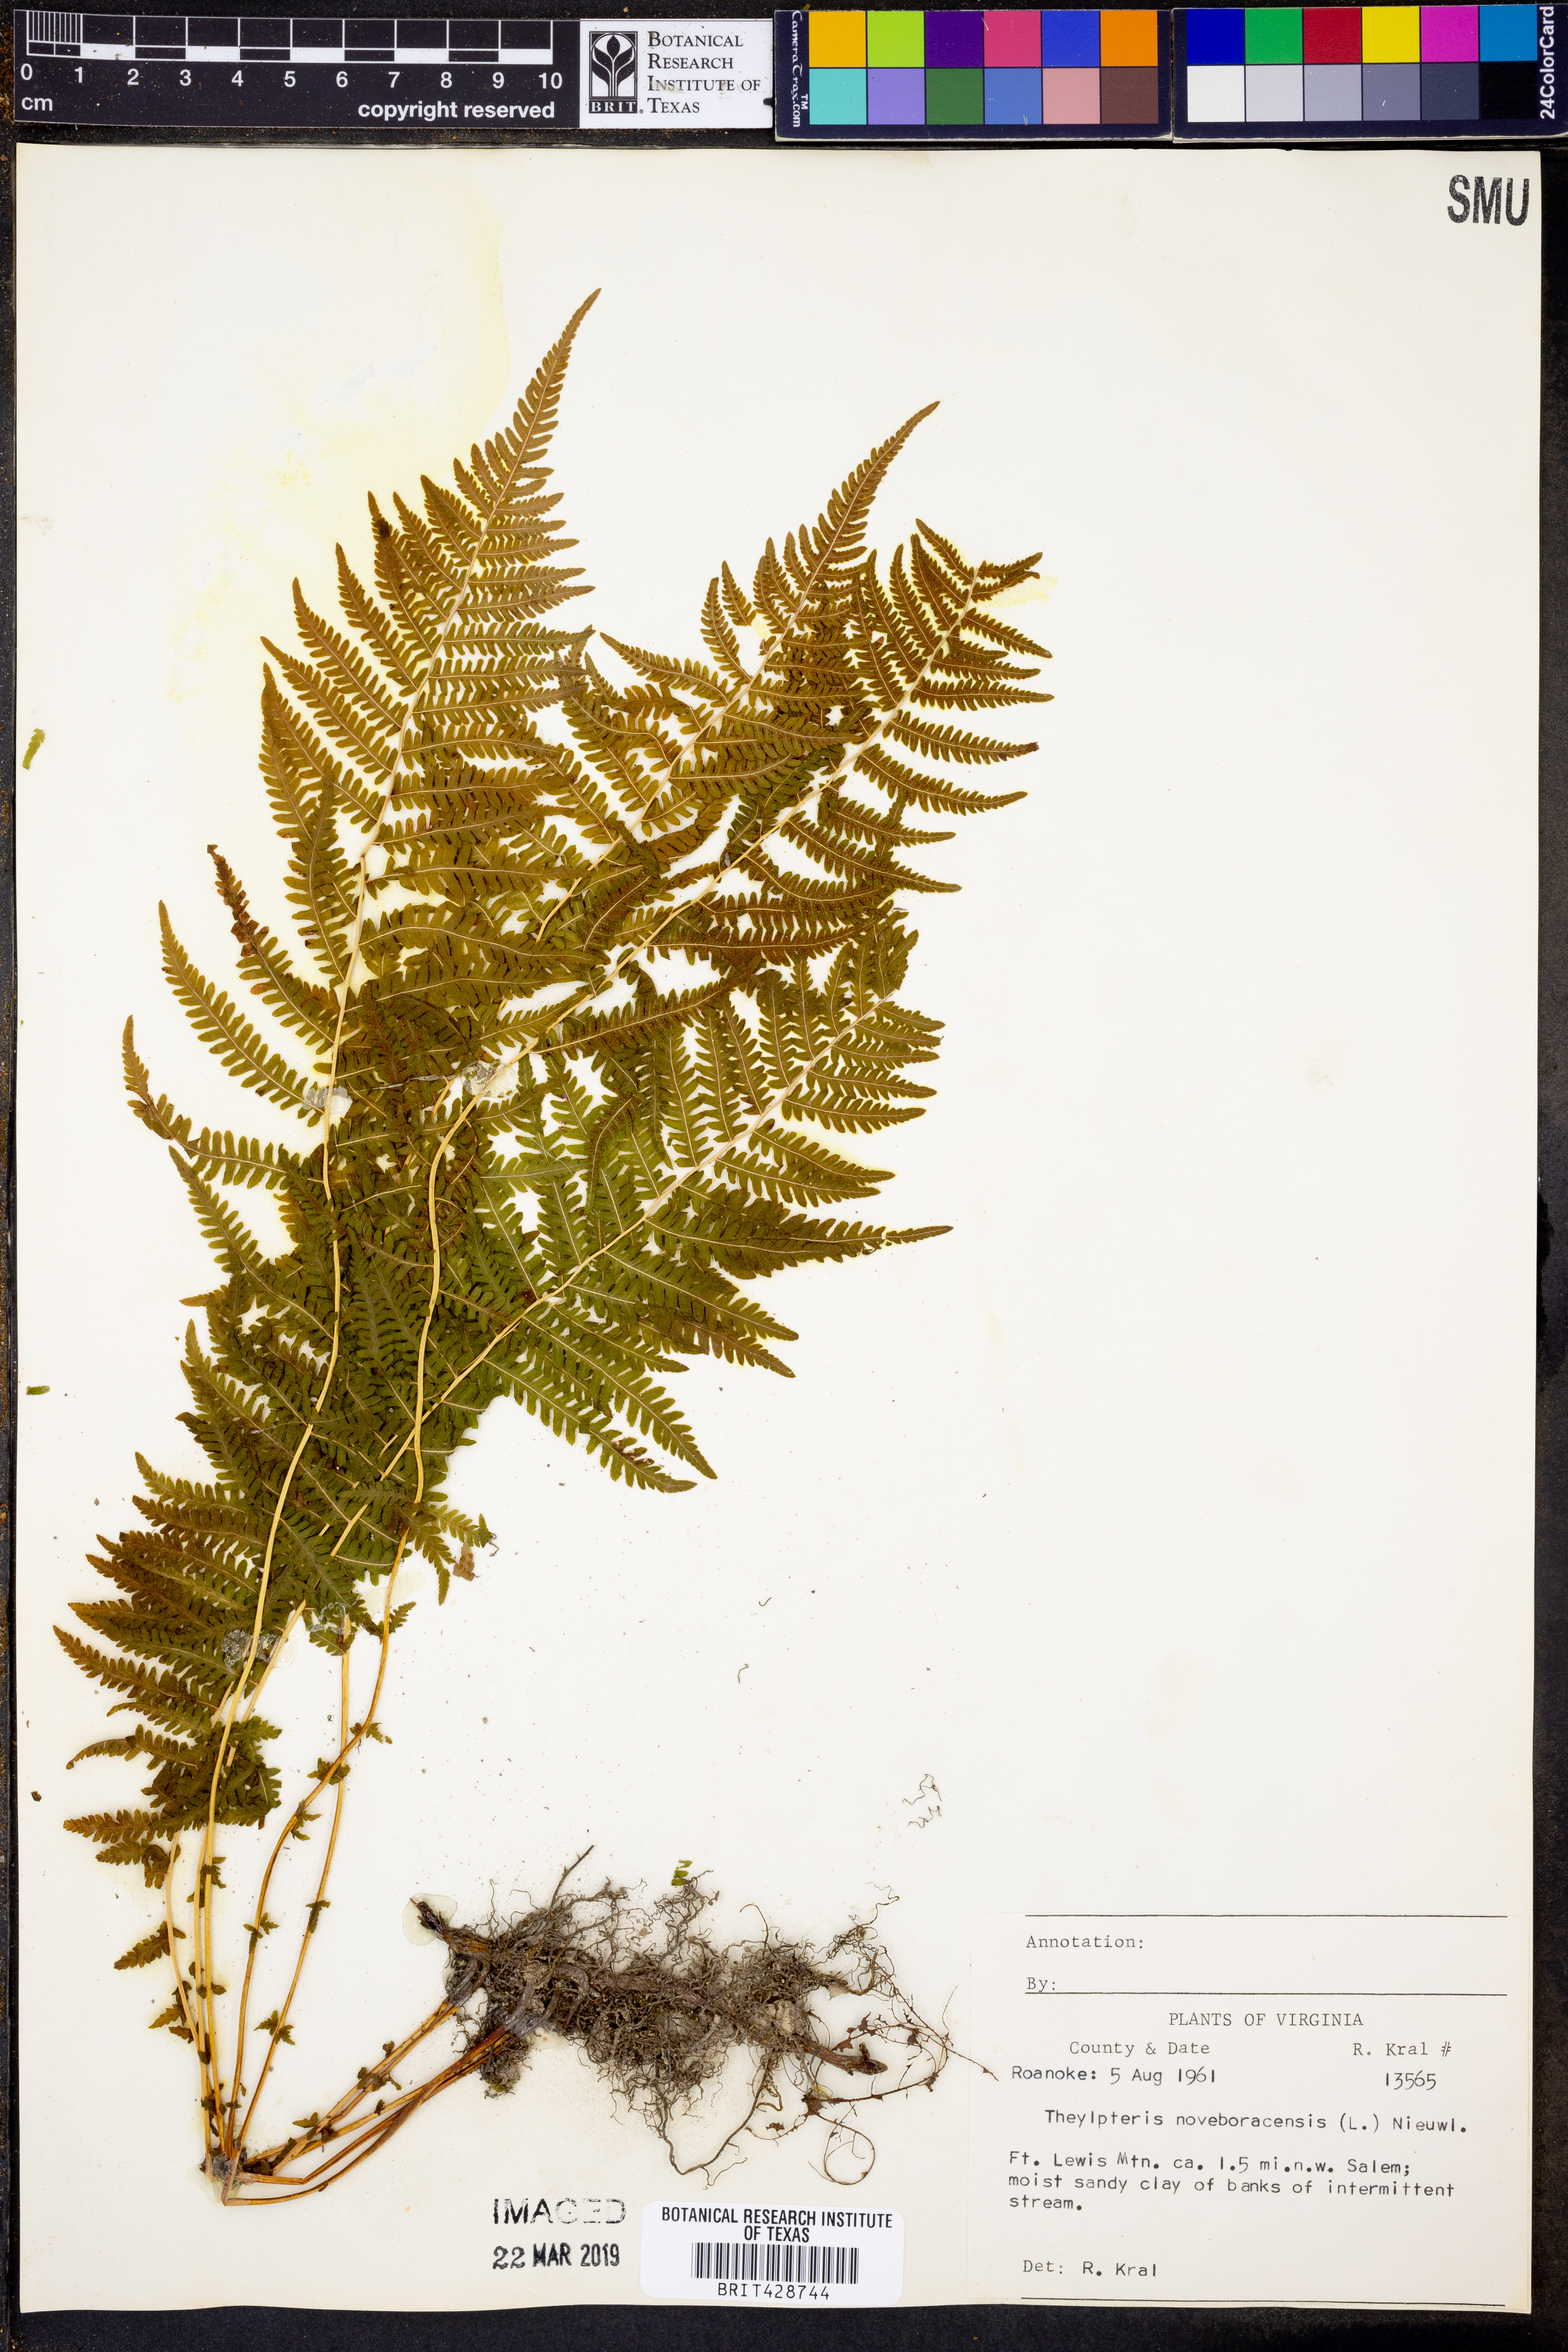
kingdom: Plantae
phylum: Tracheophyta
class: Polypodiopsida
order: Polypodiales
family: Thelypteridaceae
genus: Amauropelta
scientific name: Amauropelta noveboracensis
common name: New york fern
